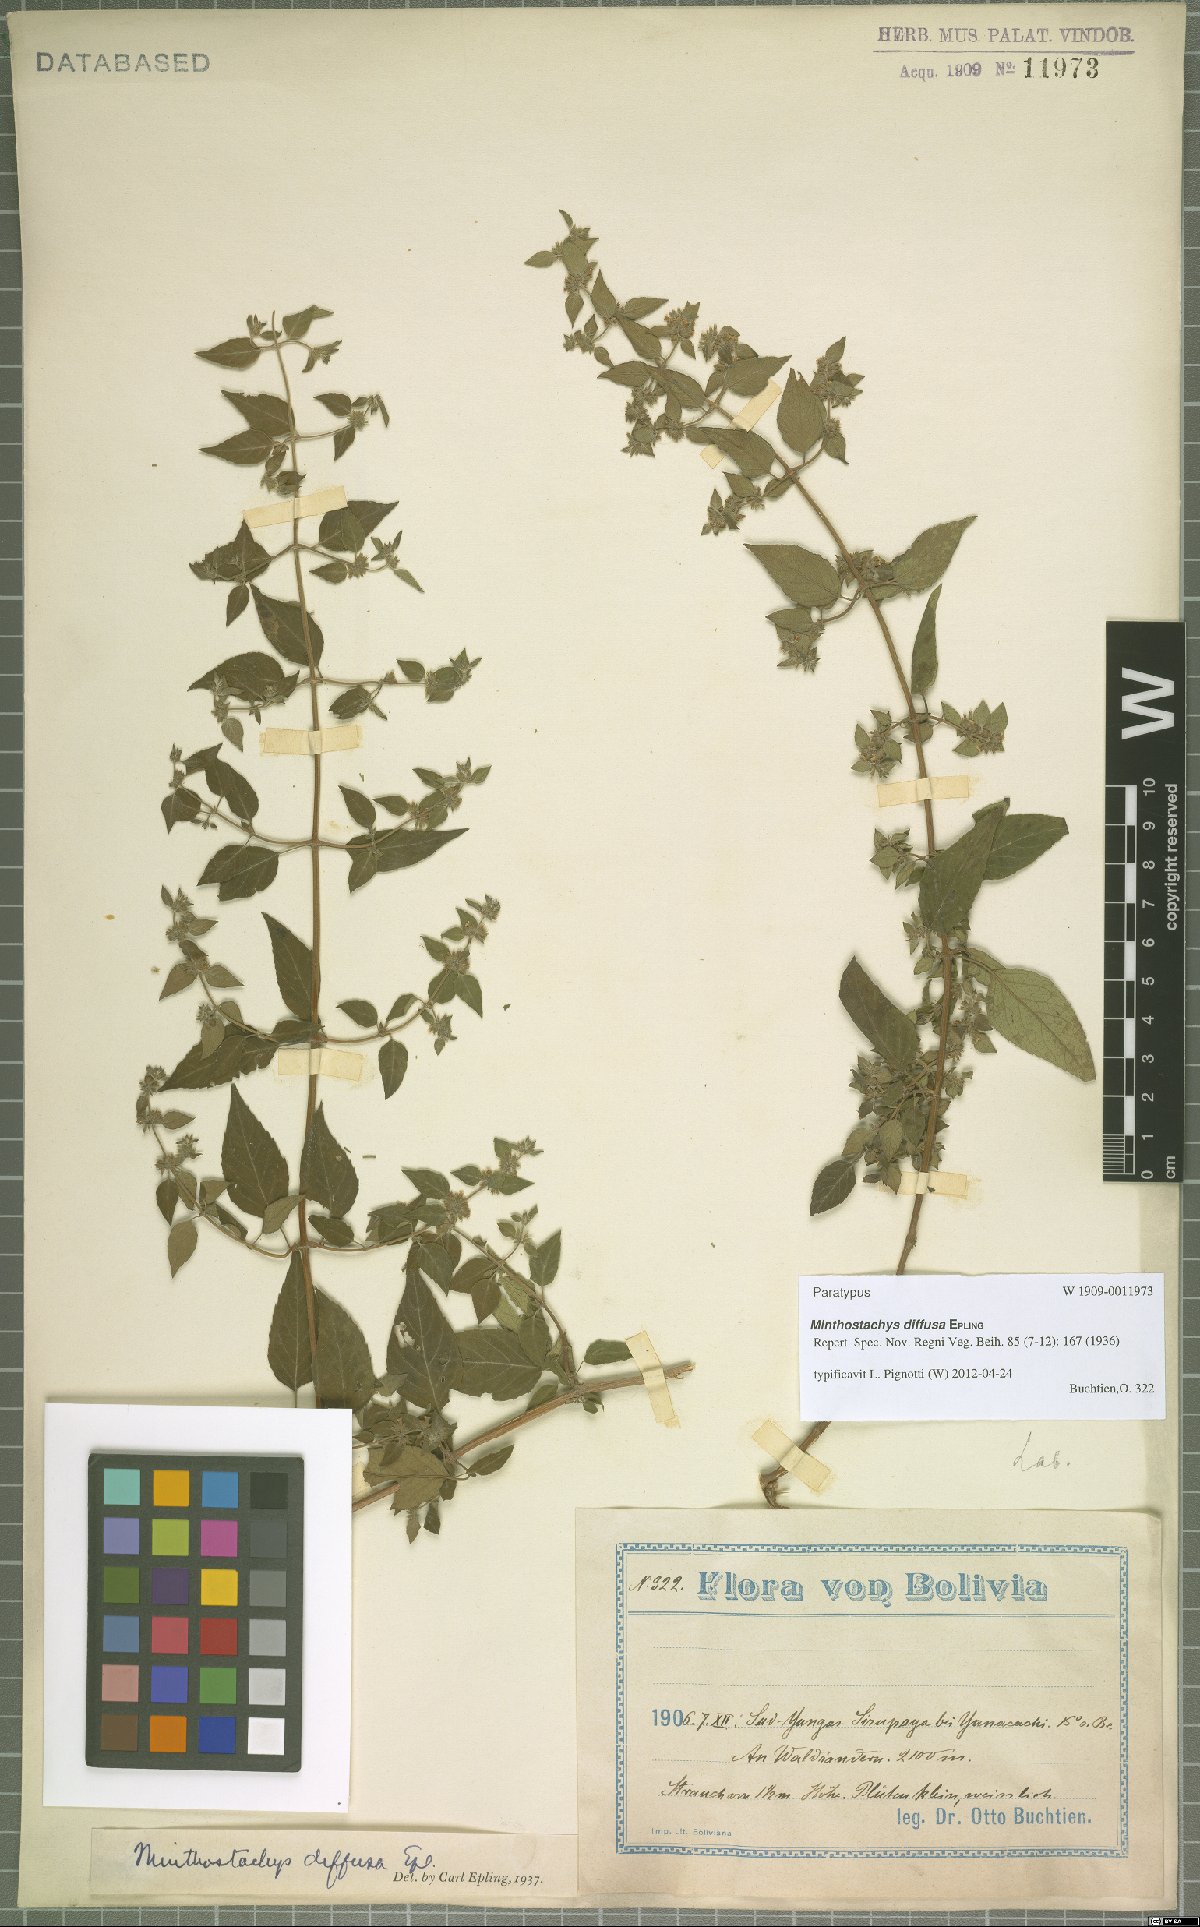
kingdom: Plantae
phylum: Tracheophyta
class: Magnoliopsida
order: Lamiales
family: Lamiaceae
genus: Minthostachys
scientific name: Minthostachys diffusa
